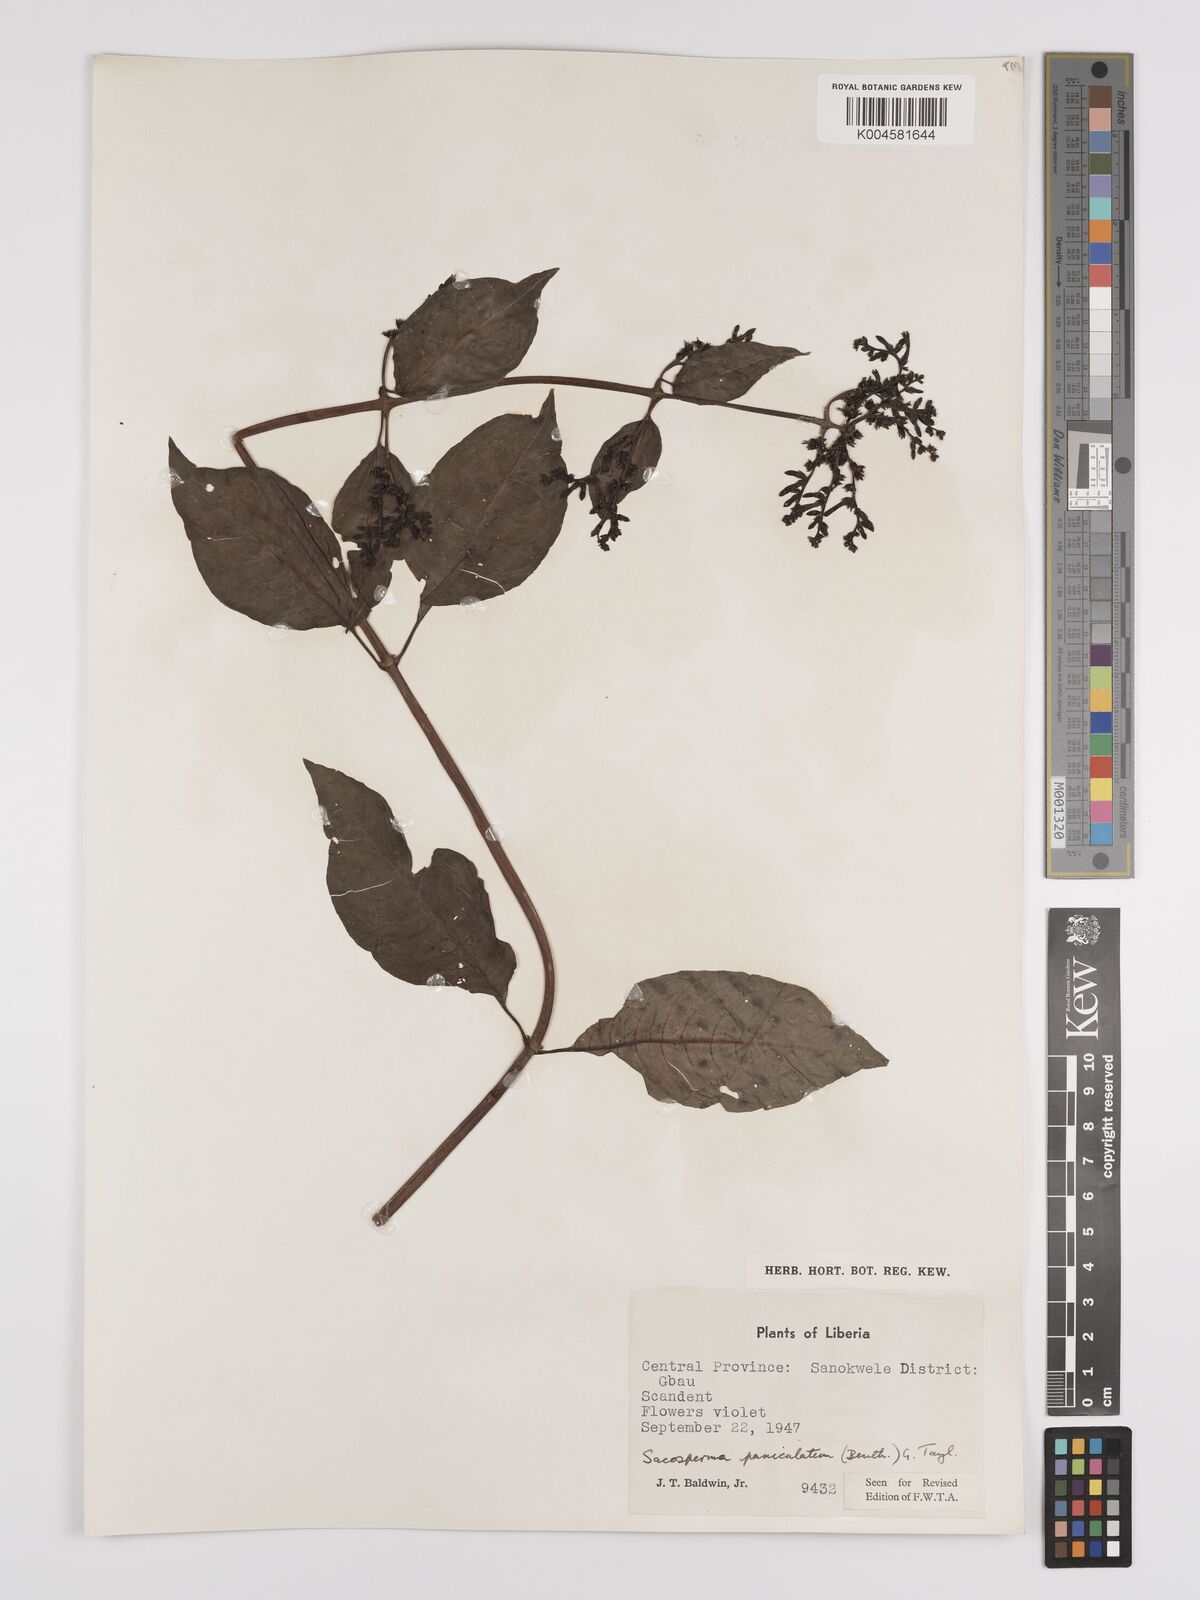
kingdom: Plantae
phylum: Tracheophyta
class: Magnoliopsida
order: Gentianales
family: Rubiaceae
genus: Sacosperma
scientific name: Sacosperma paniculatum
